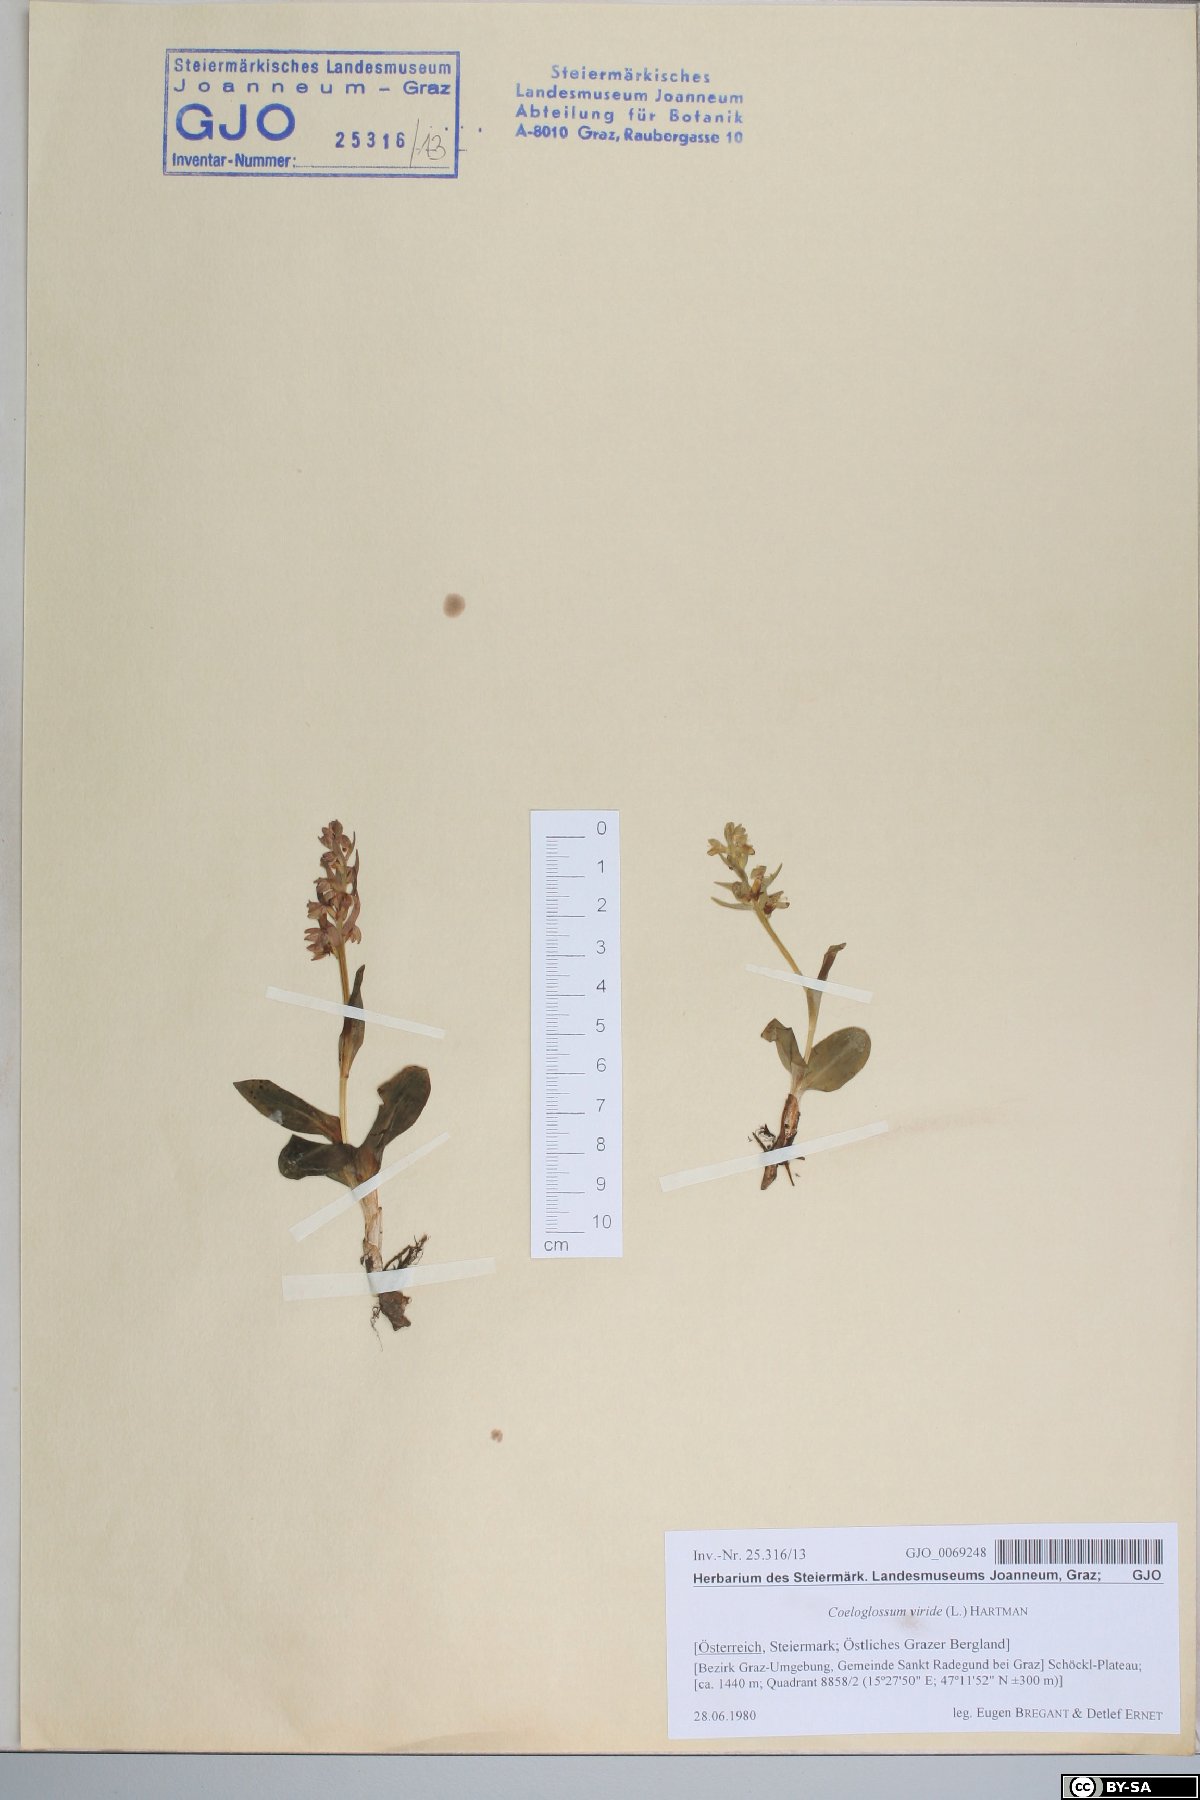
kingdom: Plantae
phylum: Tracheophyta
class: Liliopsida
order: Asparagales
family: Orchidaceae
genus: Dactylorhiza
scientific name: Dactylorhiza viridis
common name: Longbract frog orchid
